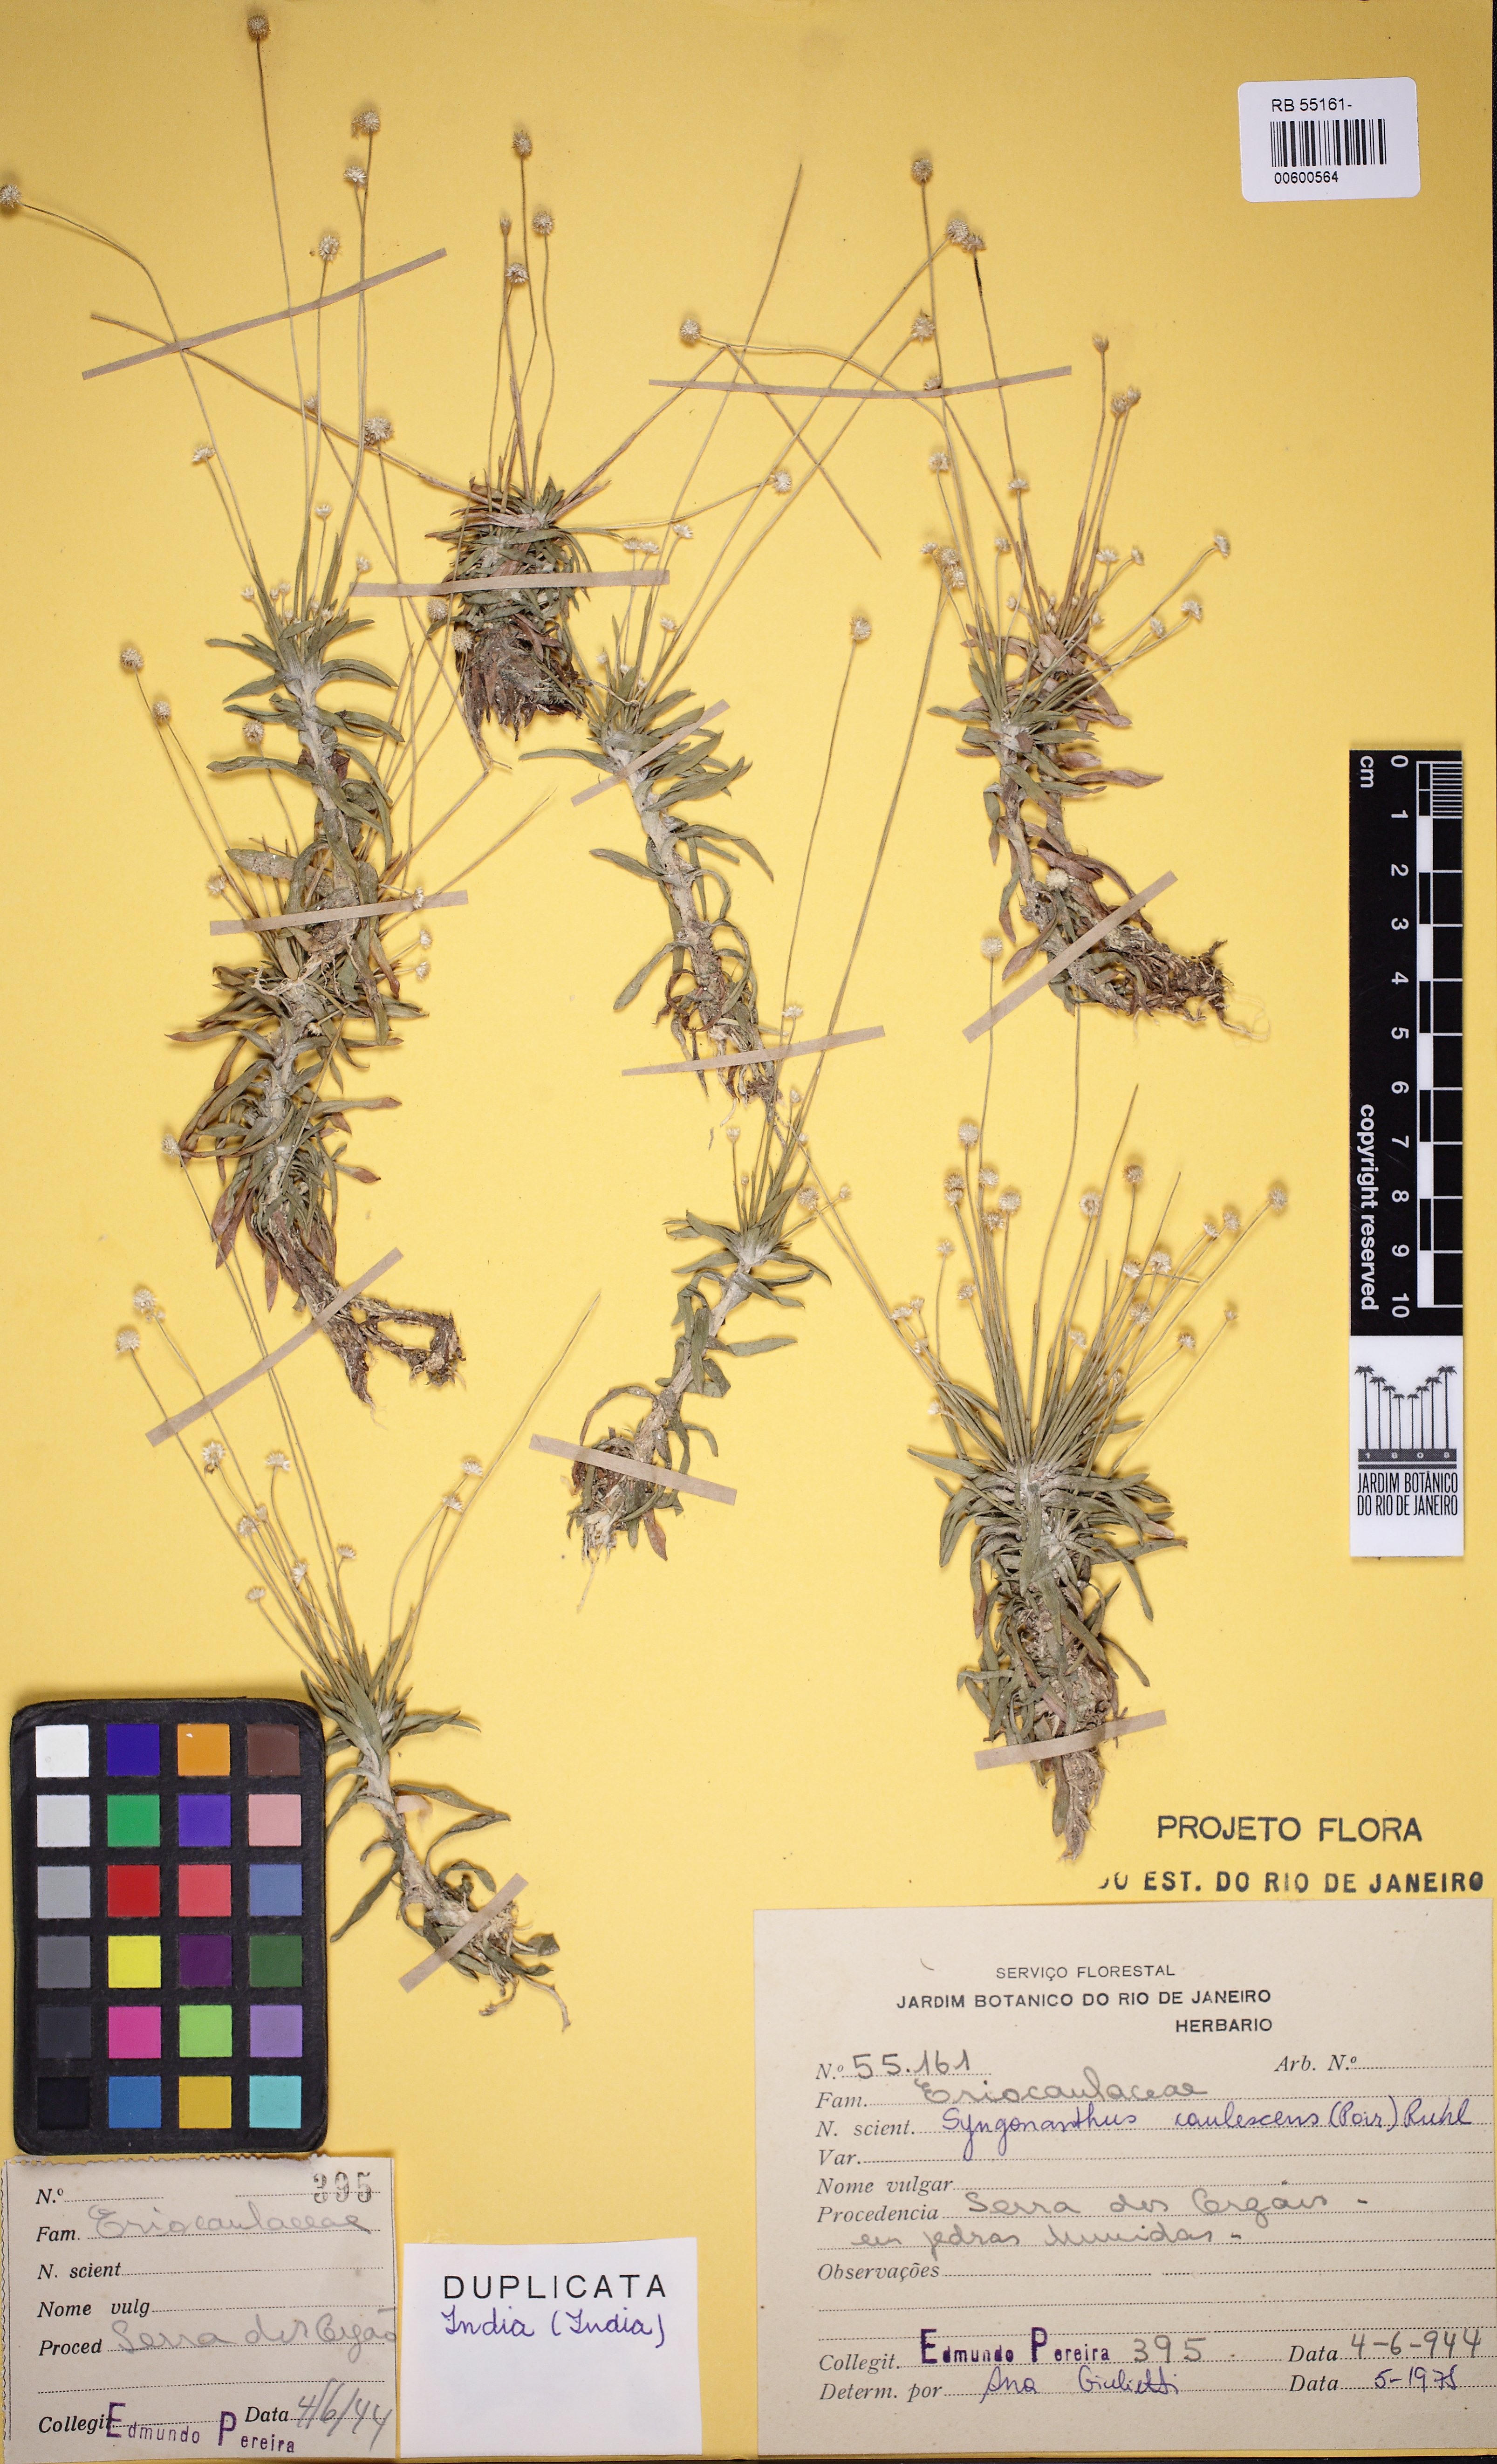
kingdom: Plantae
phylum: Tracheophyta
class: Liliopsida
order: Poales
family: Eriocaulaceae
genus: Syngonanthus
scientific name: Syngonanthus caulescens
